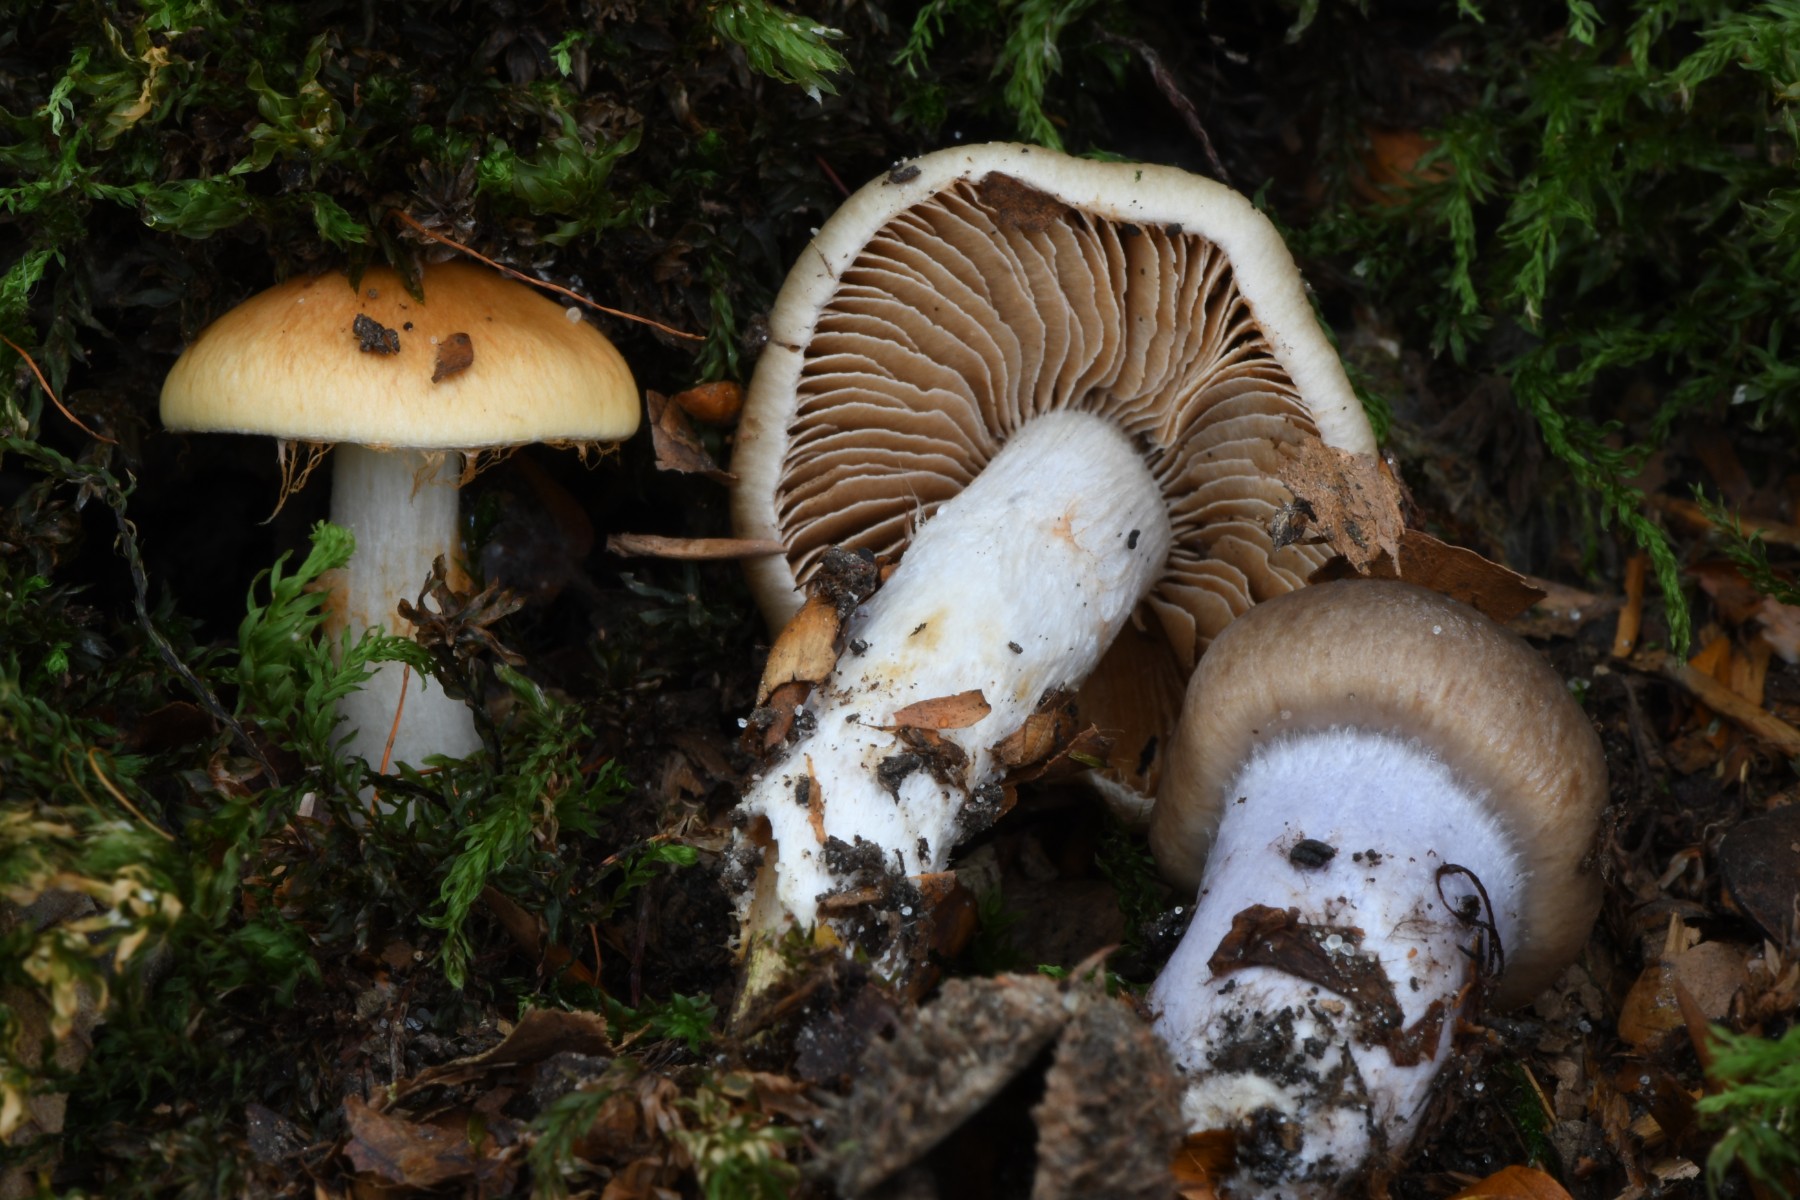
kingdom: Fungi
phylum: Basidiomycota
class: Agaricomycetes
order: Agaricales
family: Cortinariaceae
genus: Cortinarius
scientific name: Cortinarius
